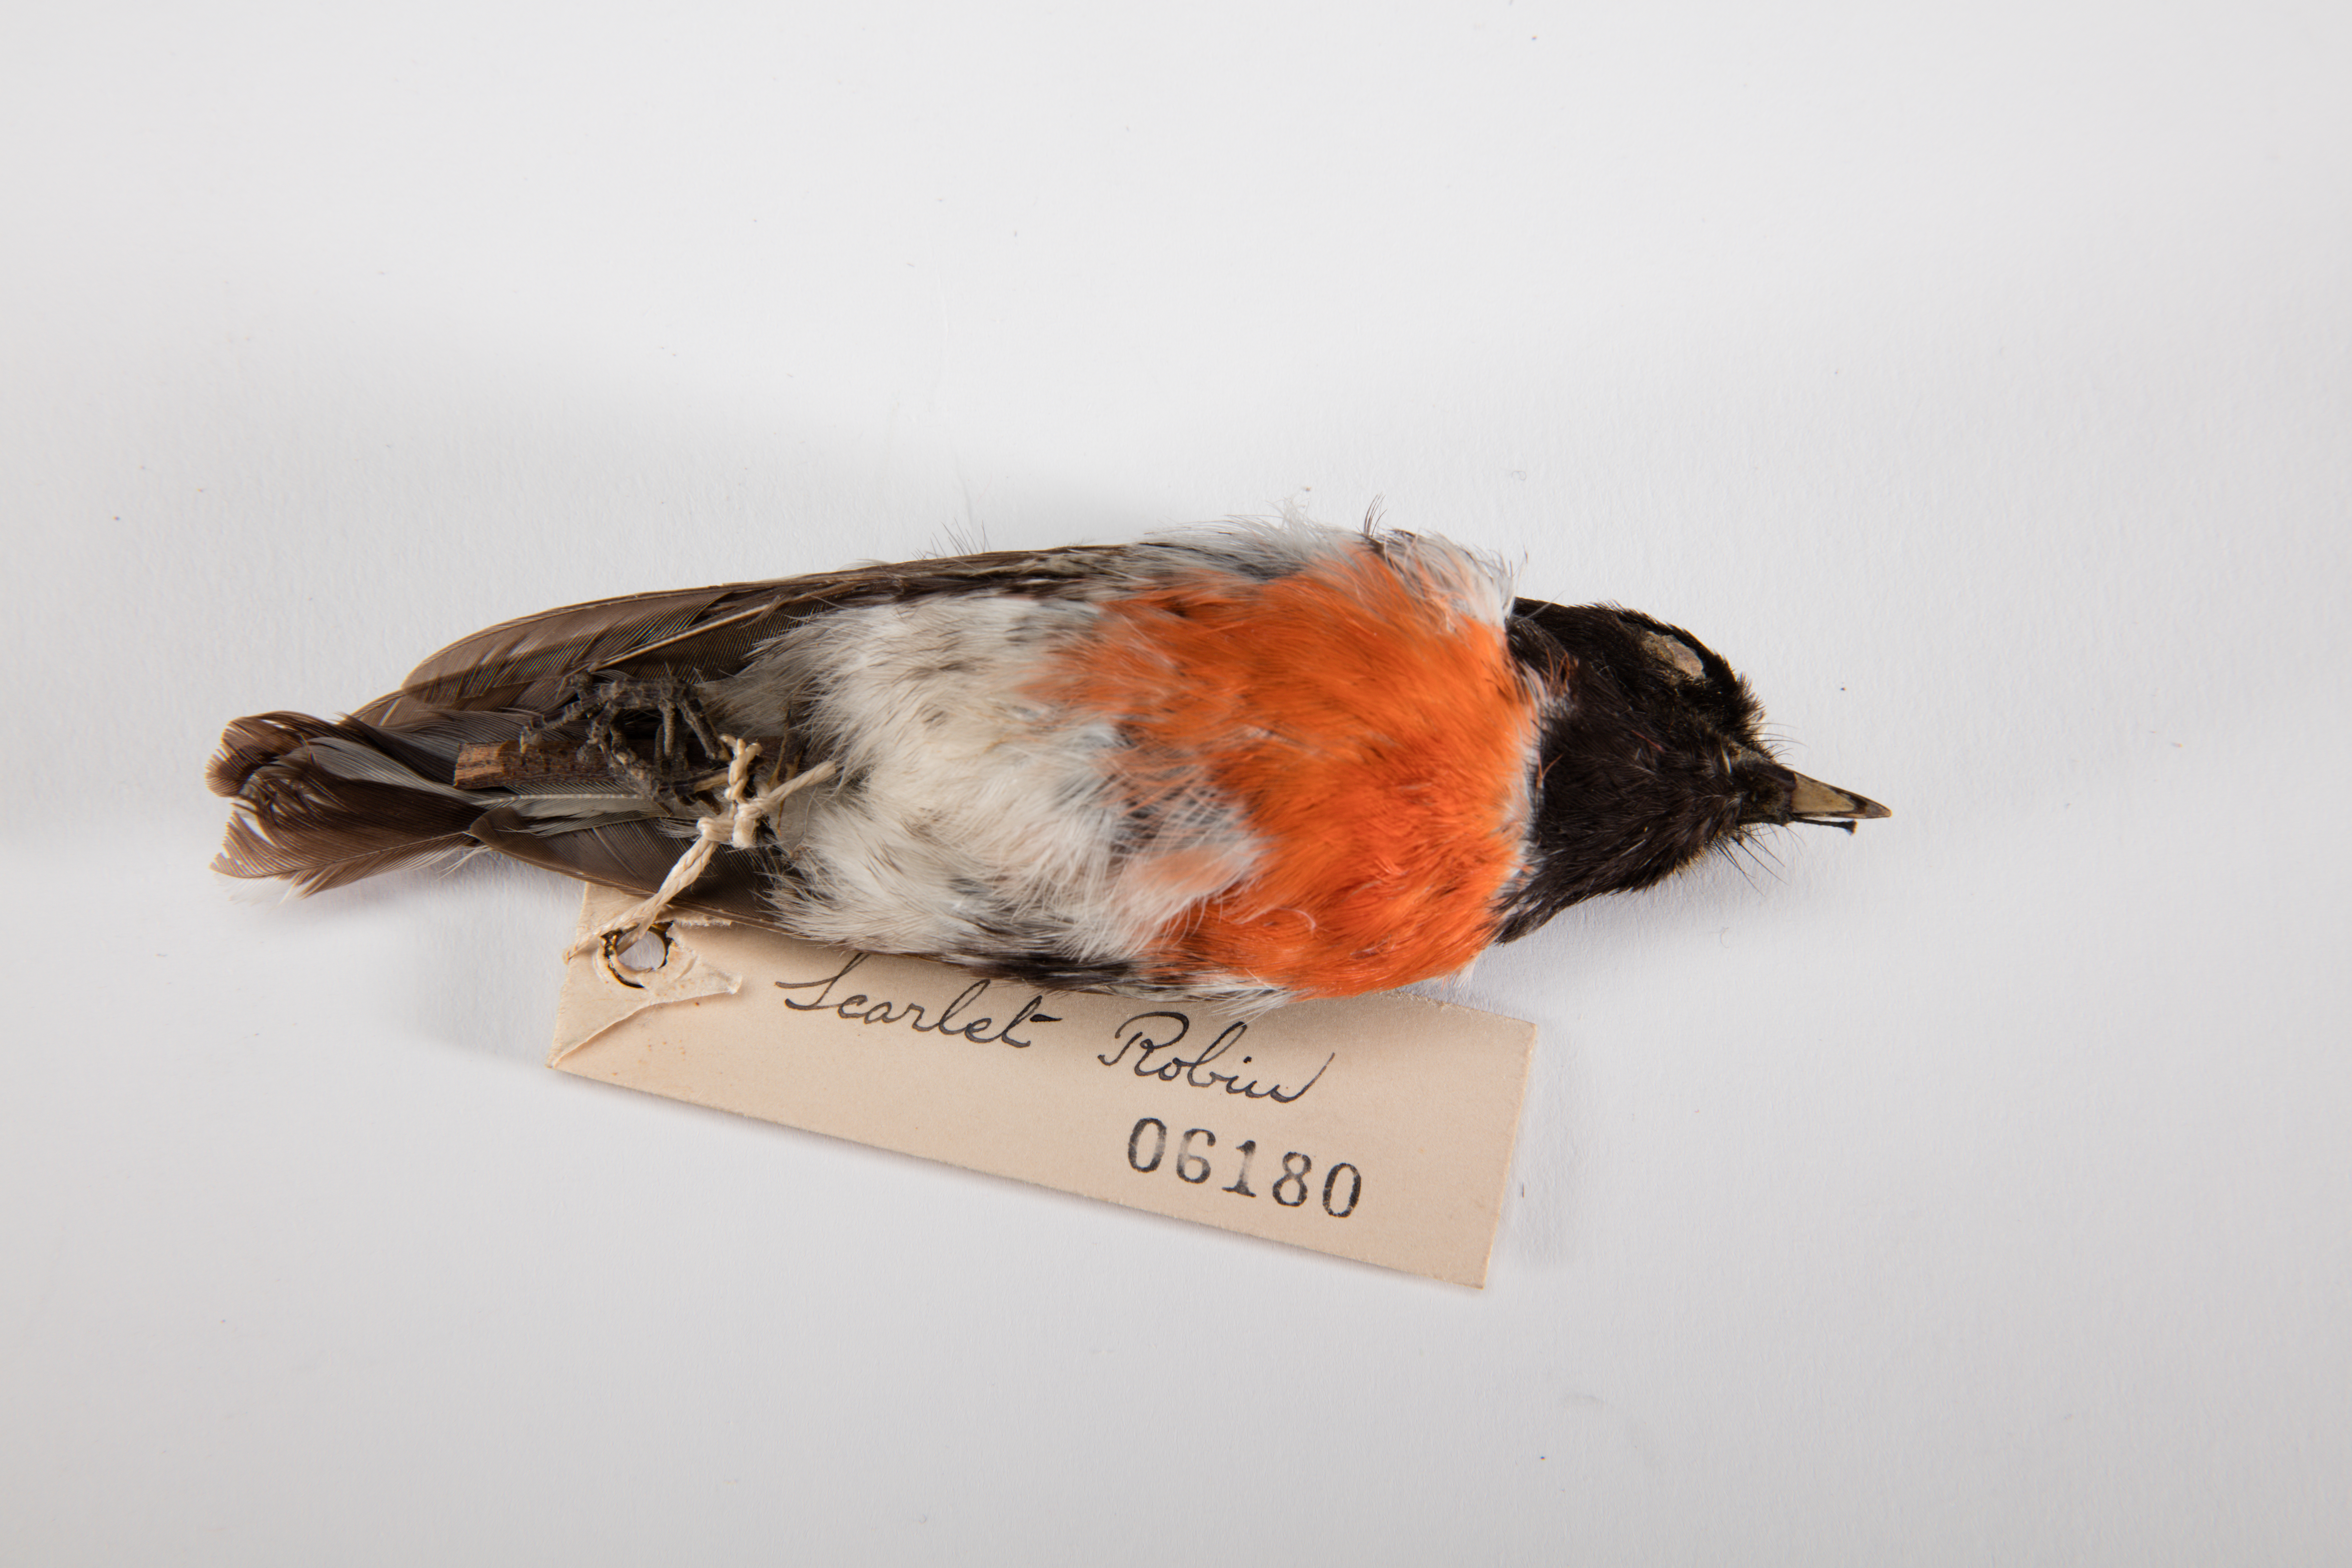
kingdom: Animalia
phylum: Chordata
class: Aves
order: Passeriformes
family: Petroicidae
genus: Petroica
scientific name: Petroica multicolor
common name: Pacific robin
